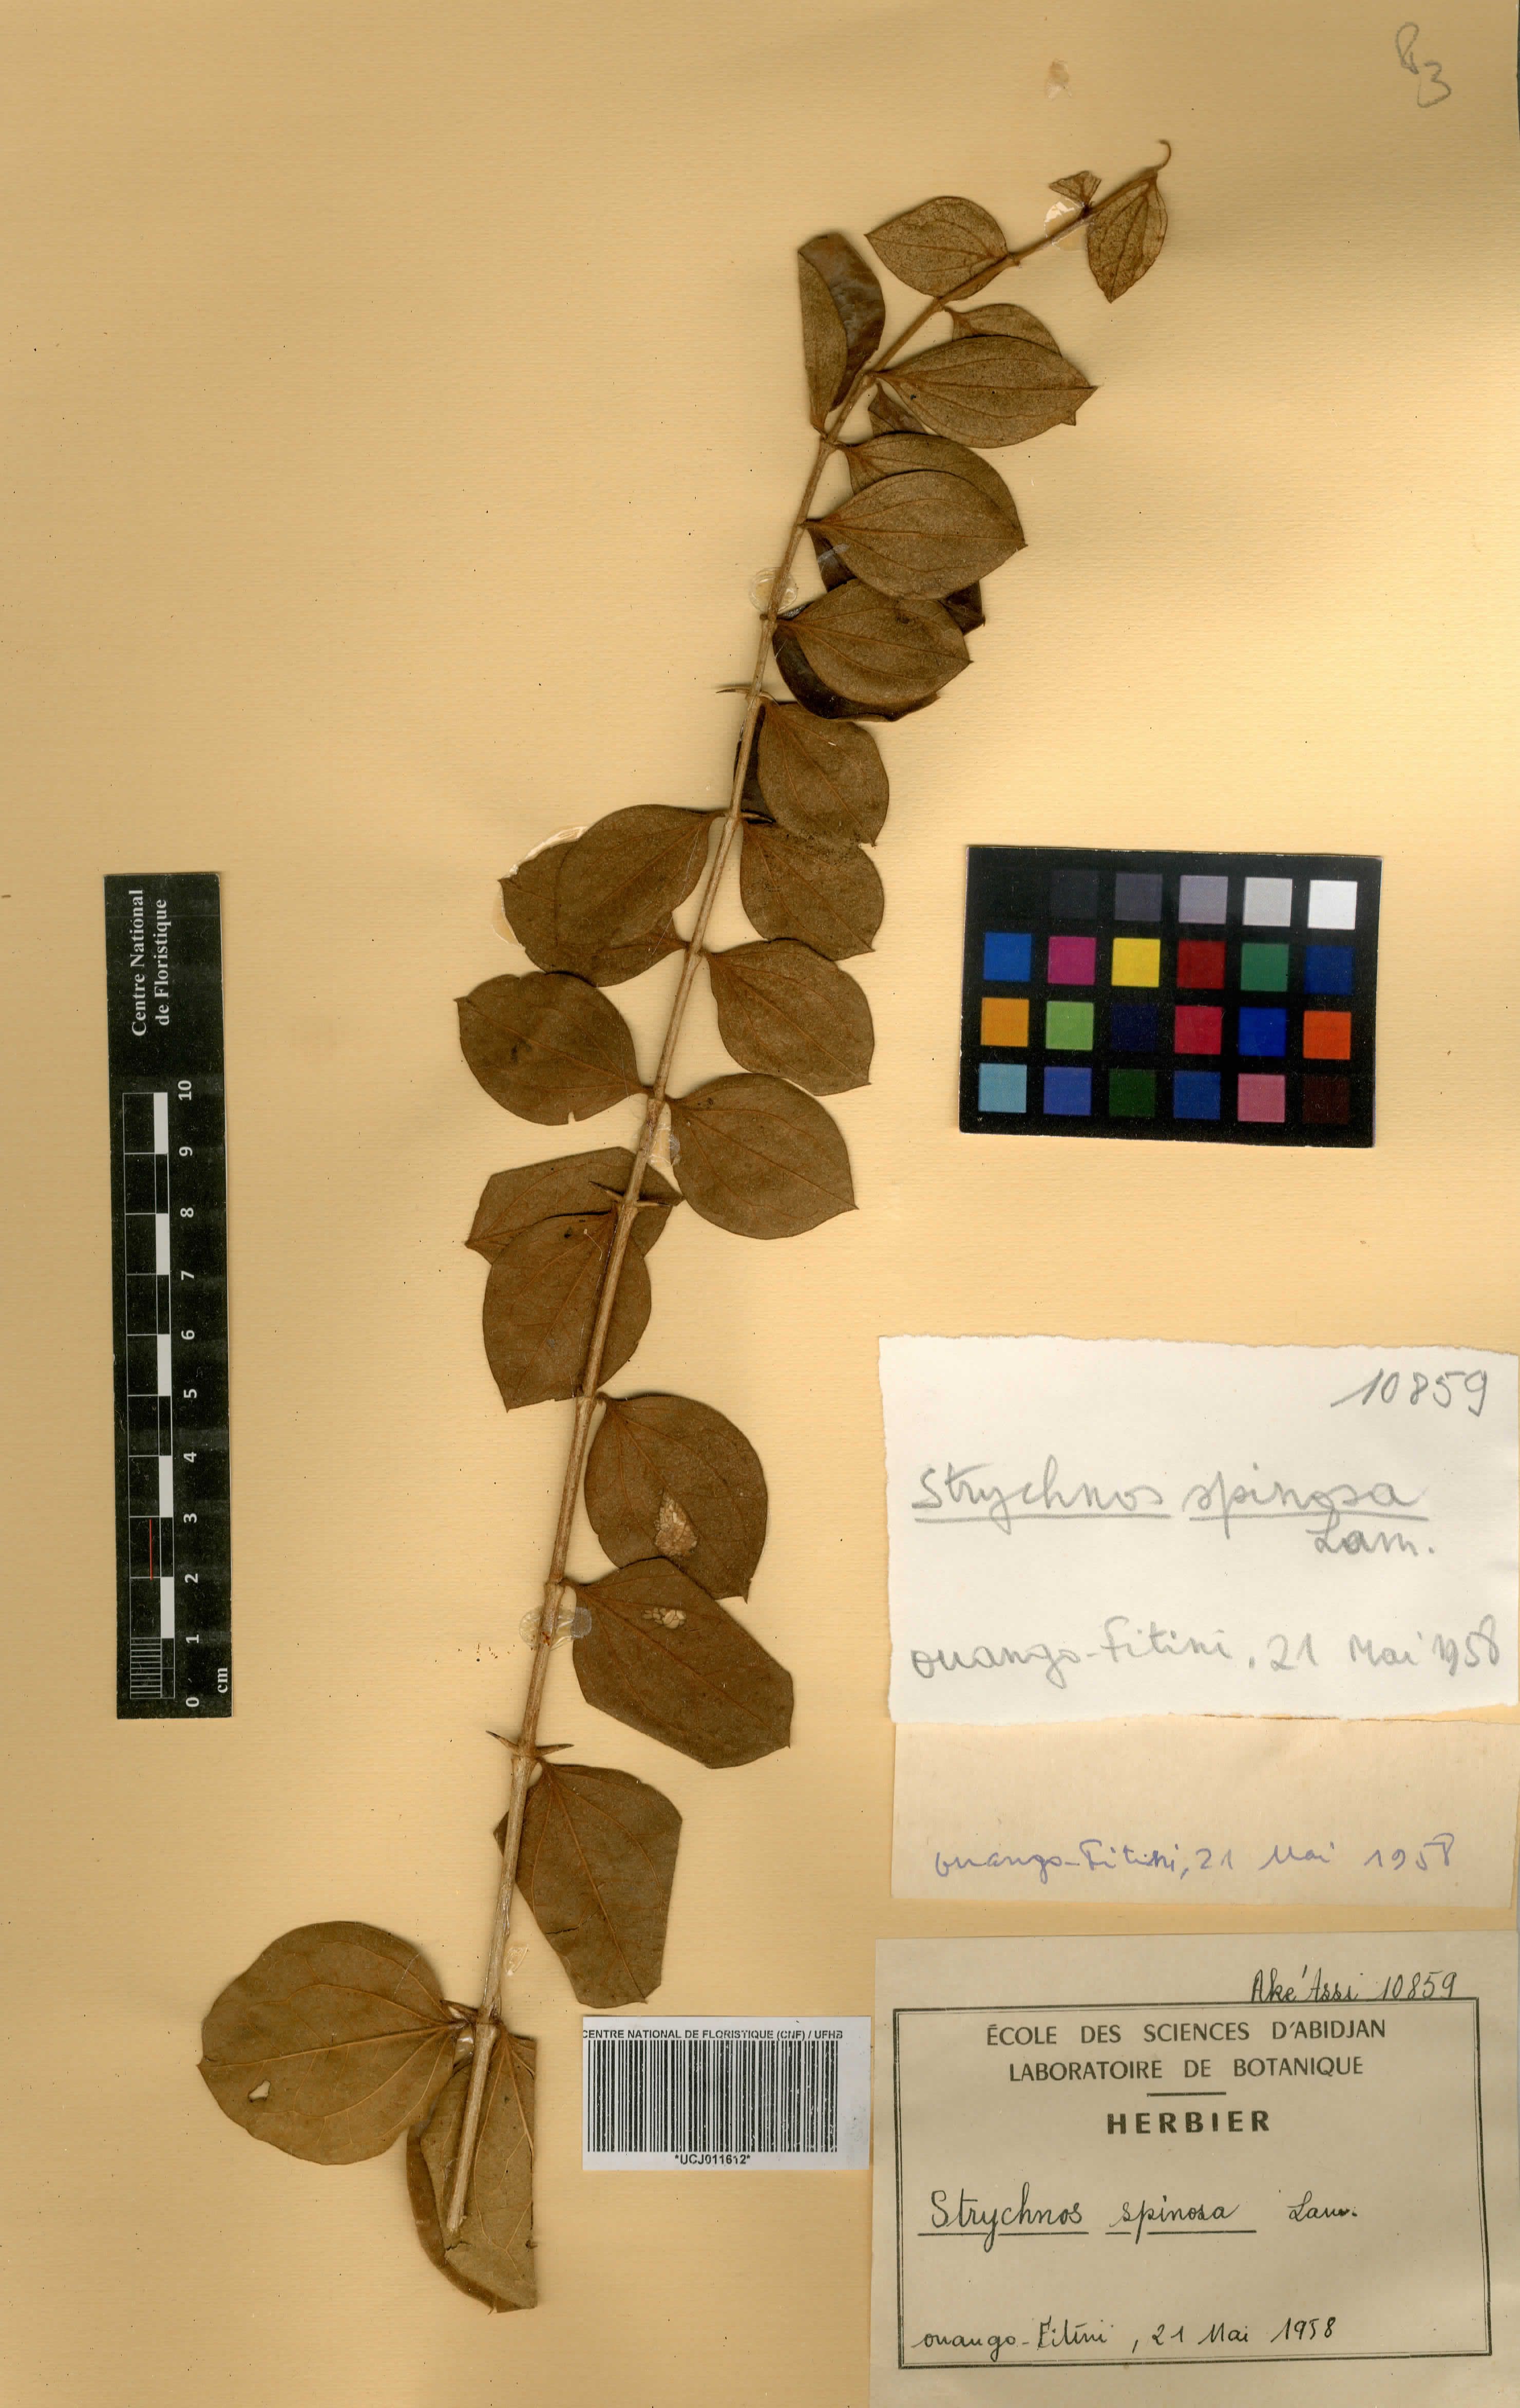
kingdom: Plantae
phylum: Tracheophyta
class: Magnoliopsida
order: Gentianales
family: Loganiaceae
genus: Strychnos
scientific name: Strychnos spinosa
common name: Natal orange
